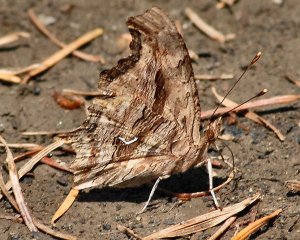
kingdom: Animalia
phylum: Arthropoda
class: Insecta
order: Lepidoptera
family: Nymphalidae
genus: Polygonia
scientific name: Polygonia satyrus
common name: Satyr Comma
